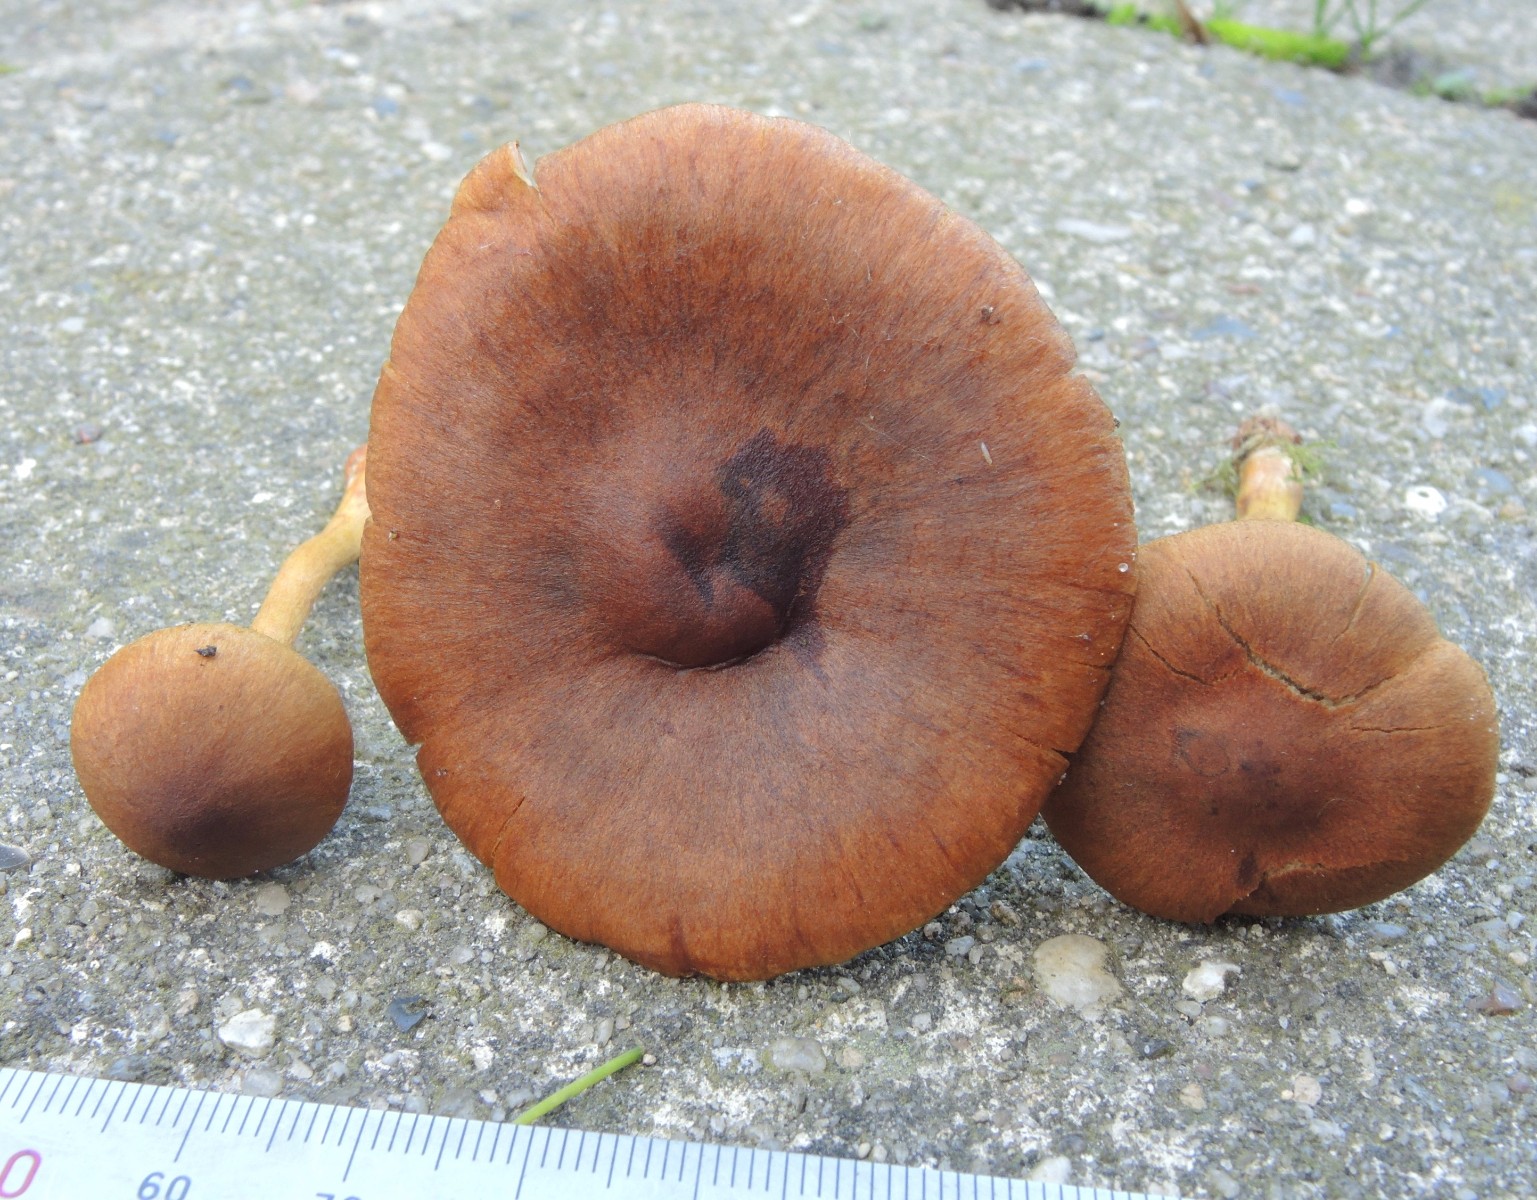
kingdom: Fungi
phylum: Basidiomycota
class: Agaricomycetes
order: Agaricales
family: Cortinariaceae
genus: Cortinarius
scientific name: Cortinarius hadrocroceus
